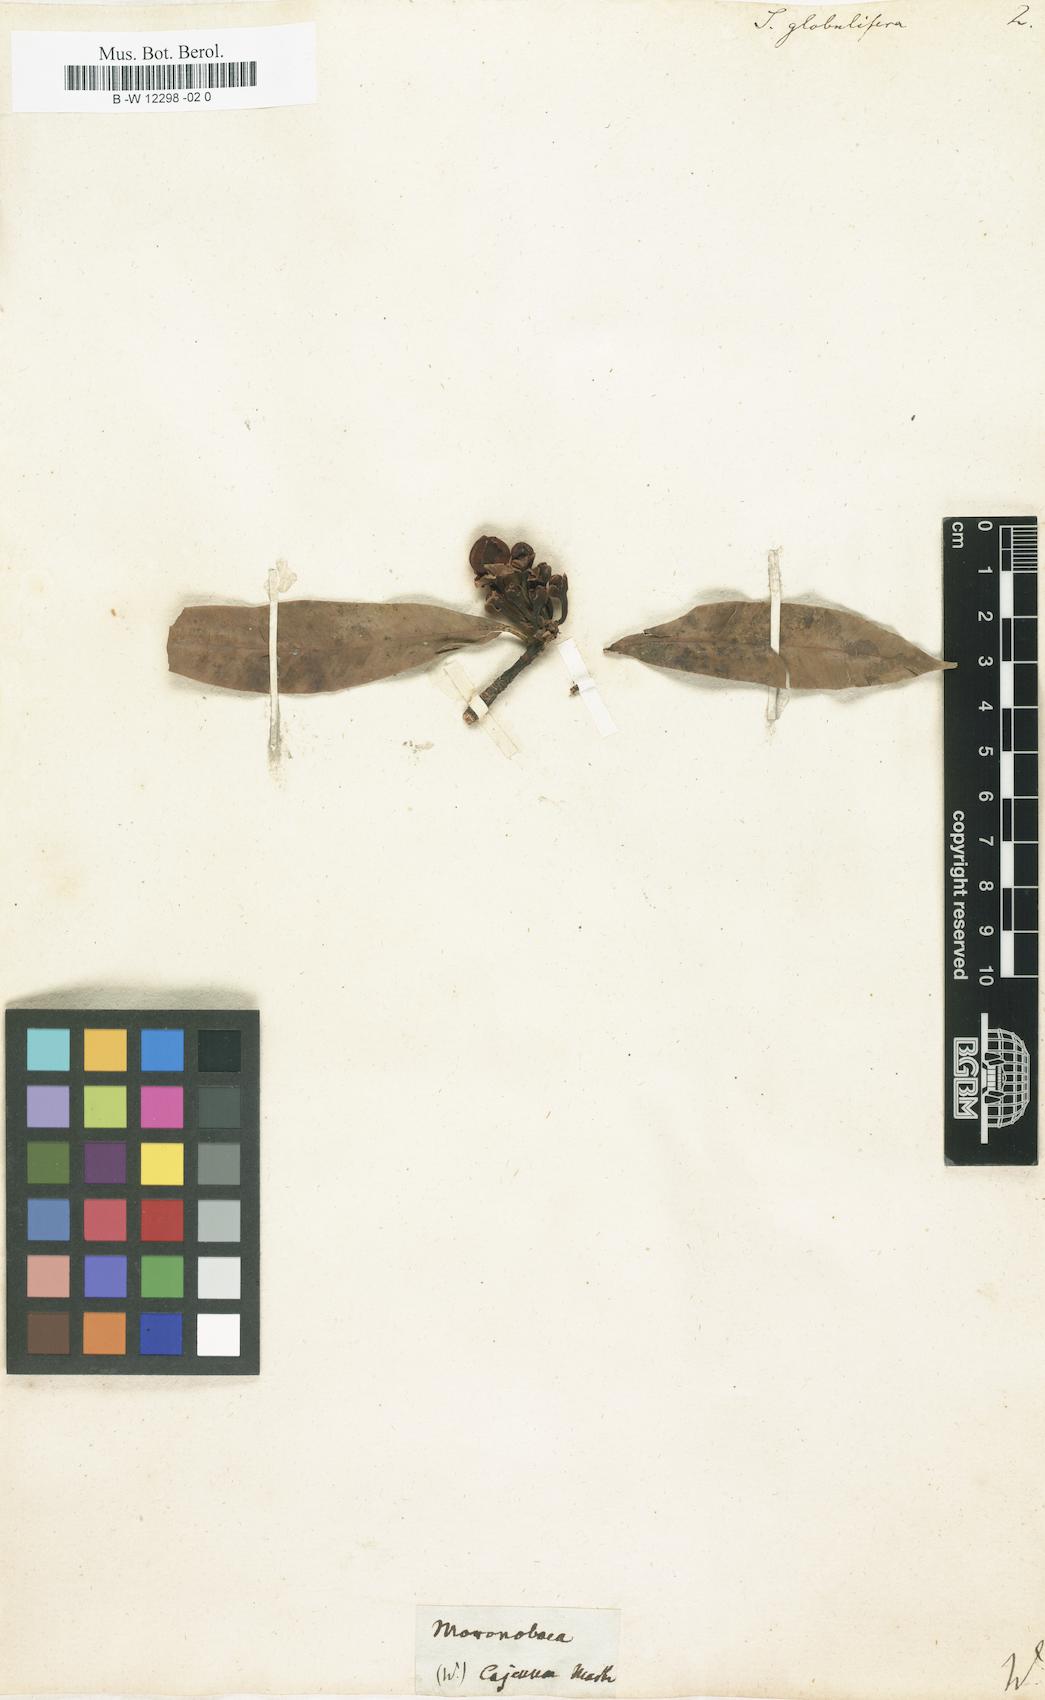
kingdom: Plantae
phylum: Tracheophyta
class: Magnoliopsida
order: Malpighiales
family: Clusiaceae
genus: Symphonia
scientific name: Symphonia globulifera
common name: Boarwood
